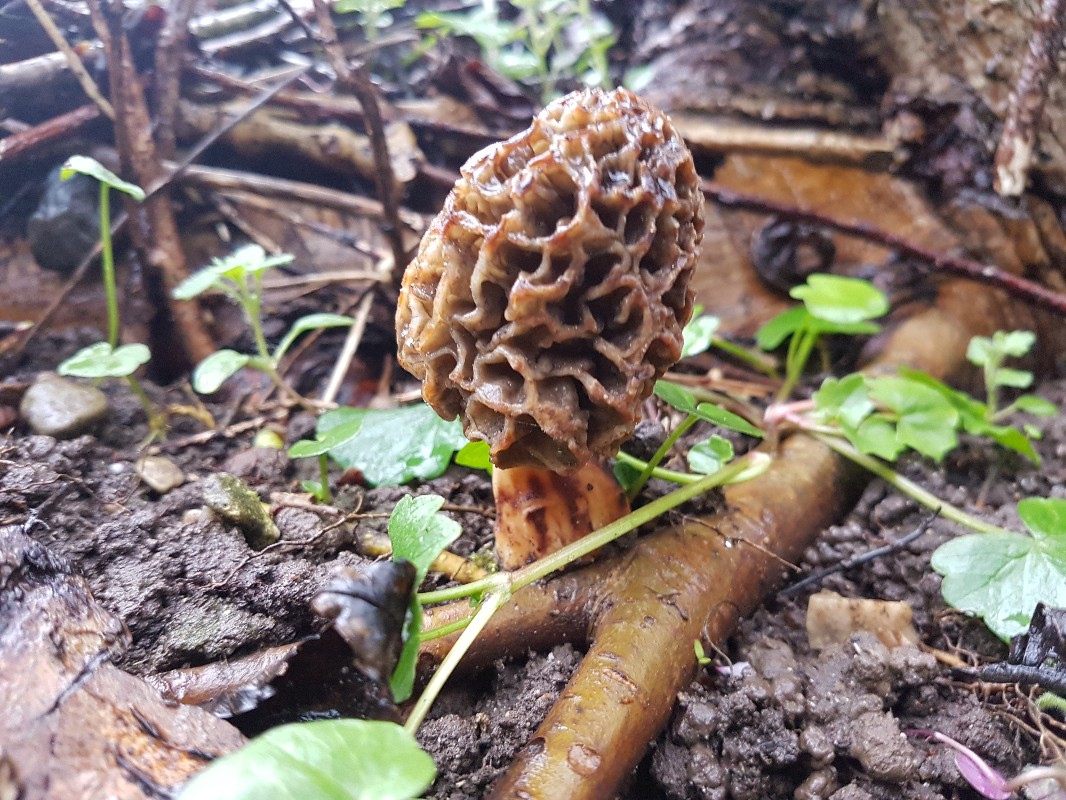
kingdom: Fungi
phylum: Ascomycota
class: Pezizomycetes
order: Pezizales
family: Morchellaceae
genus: Morchella
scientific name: Morchella esculenta
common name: almindelig morkel
